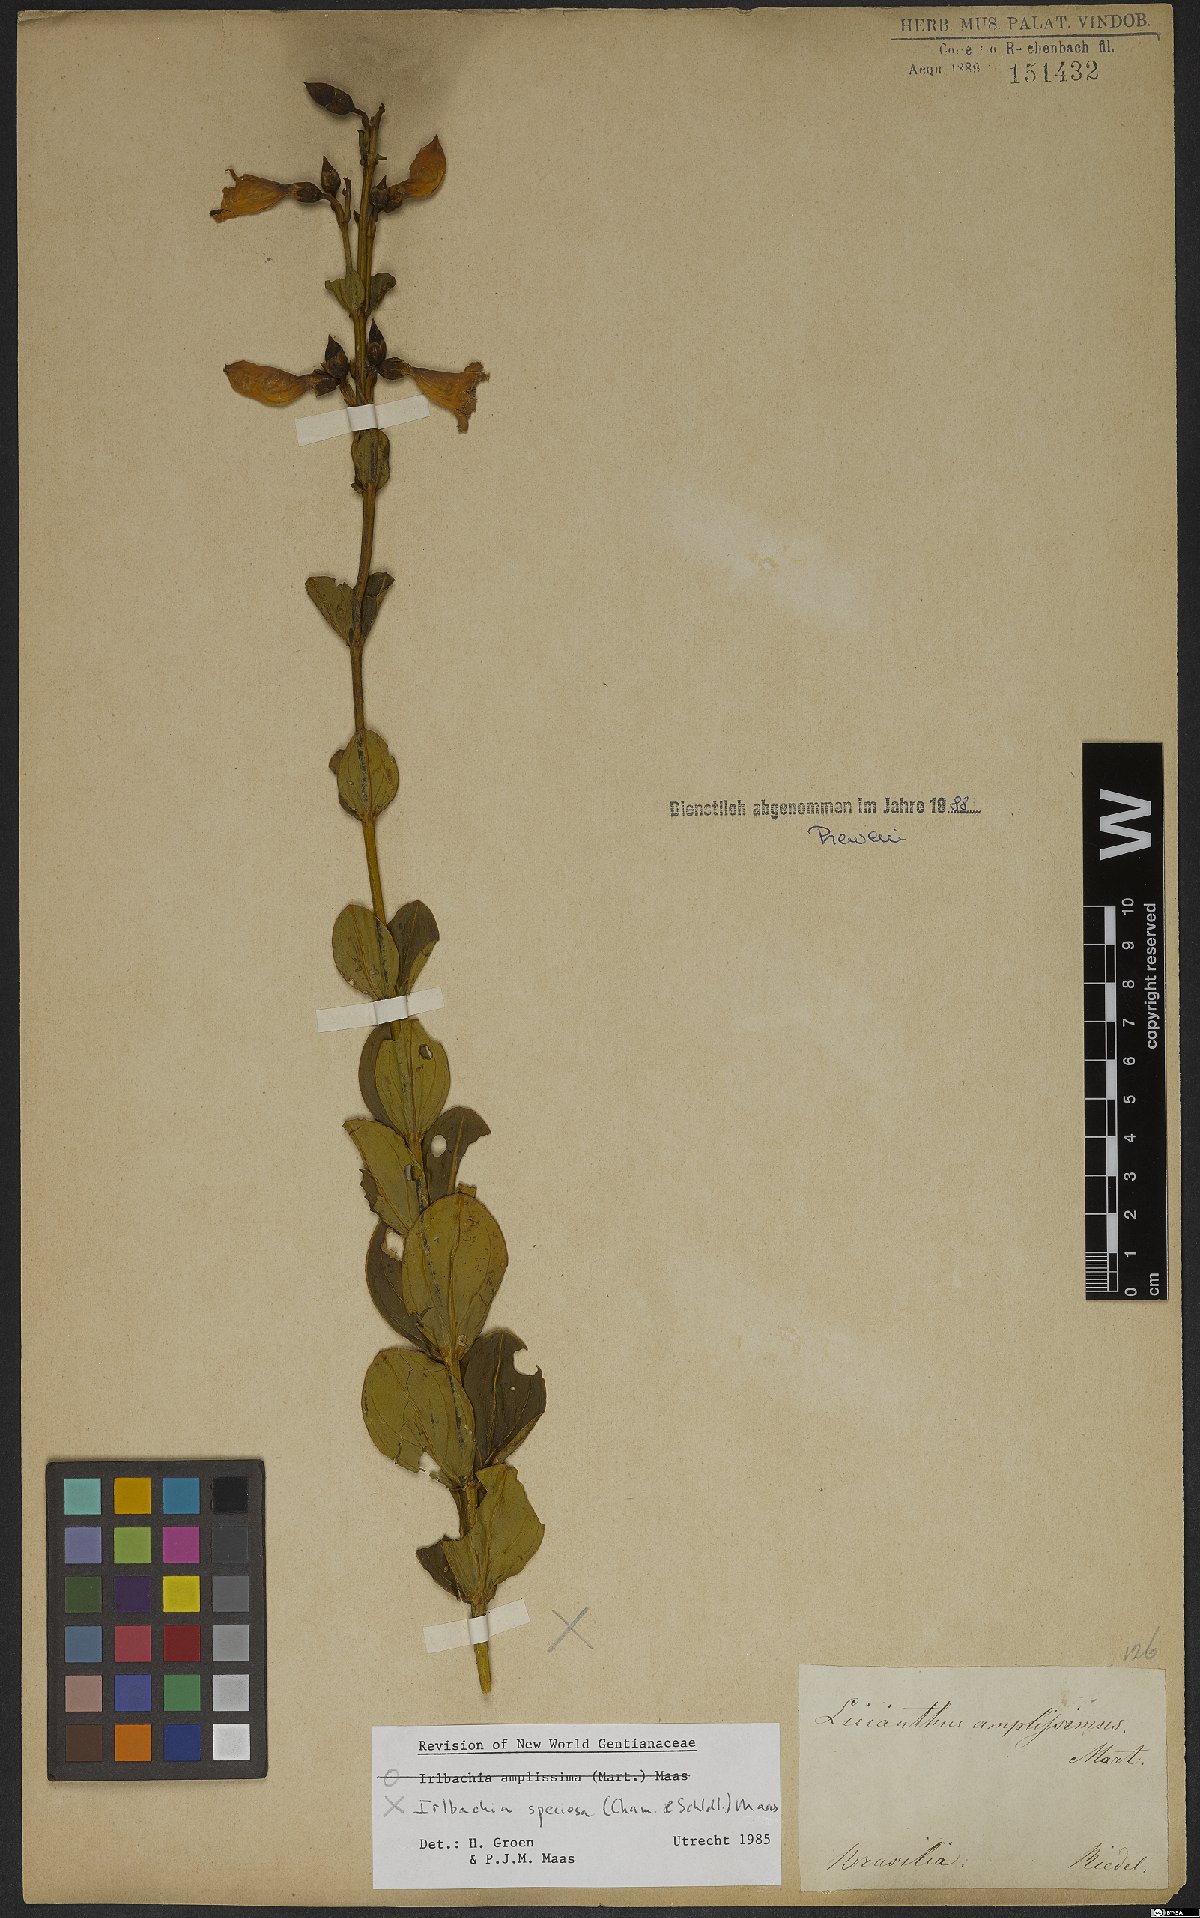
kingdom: Plantae
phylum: Tracheophyta
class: Magnoliopsida
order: Gentianales
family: Gentianaceae
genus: Calolisianthus
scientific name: Calolisianthus speciosus
